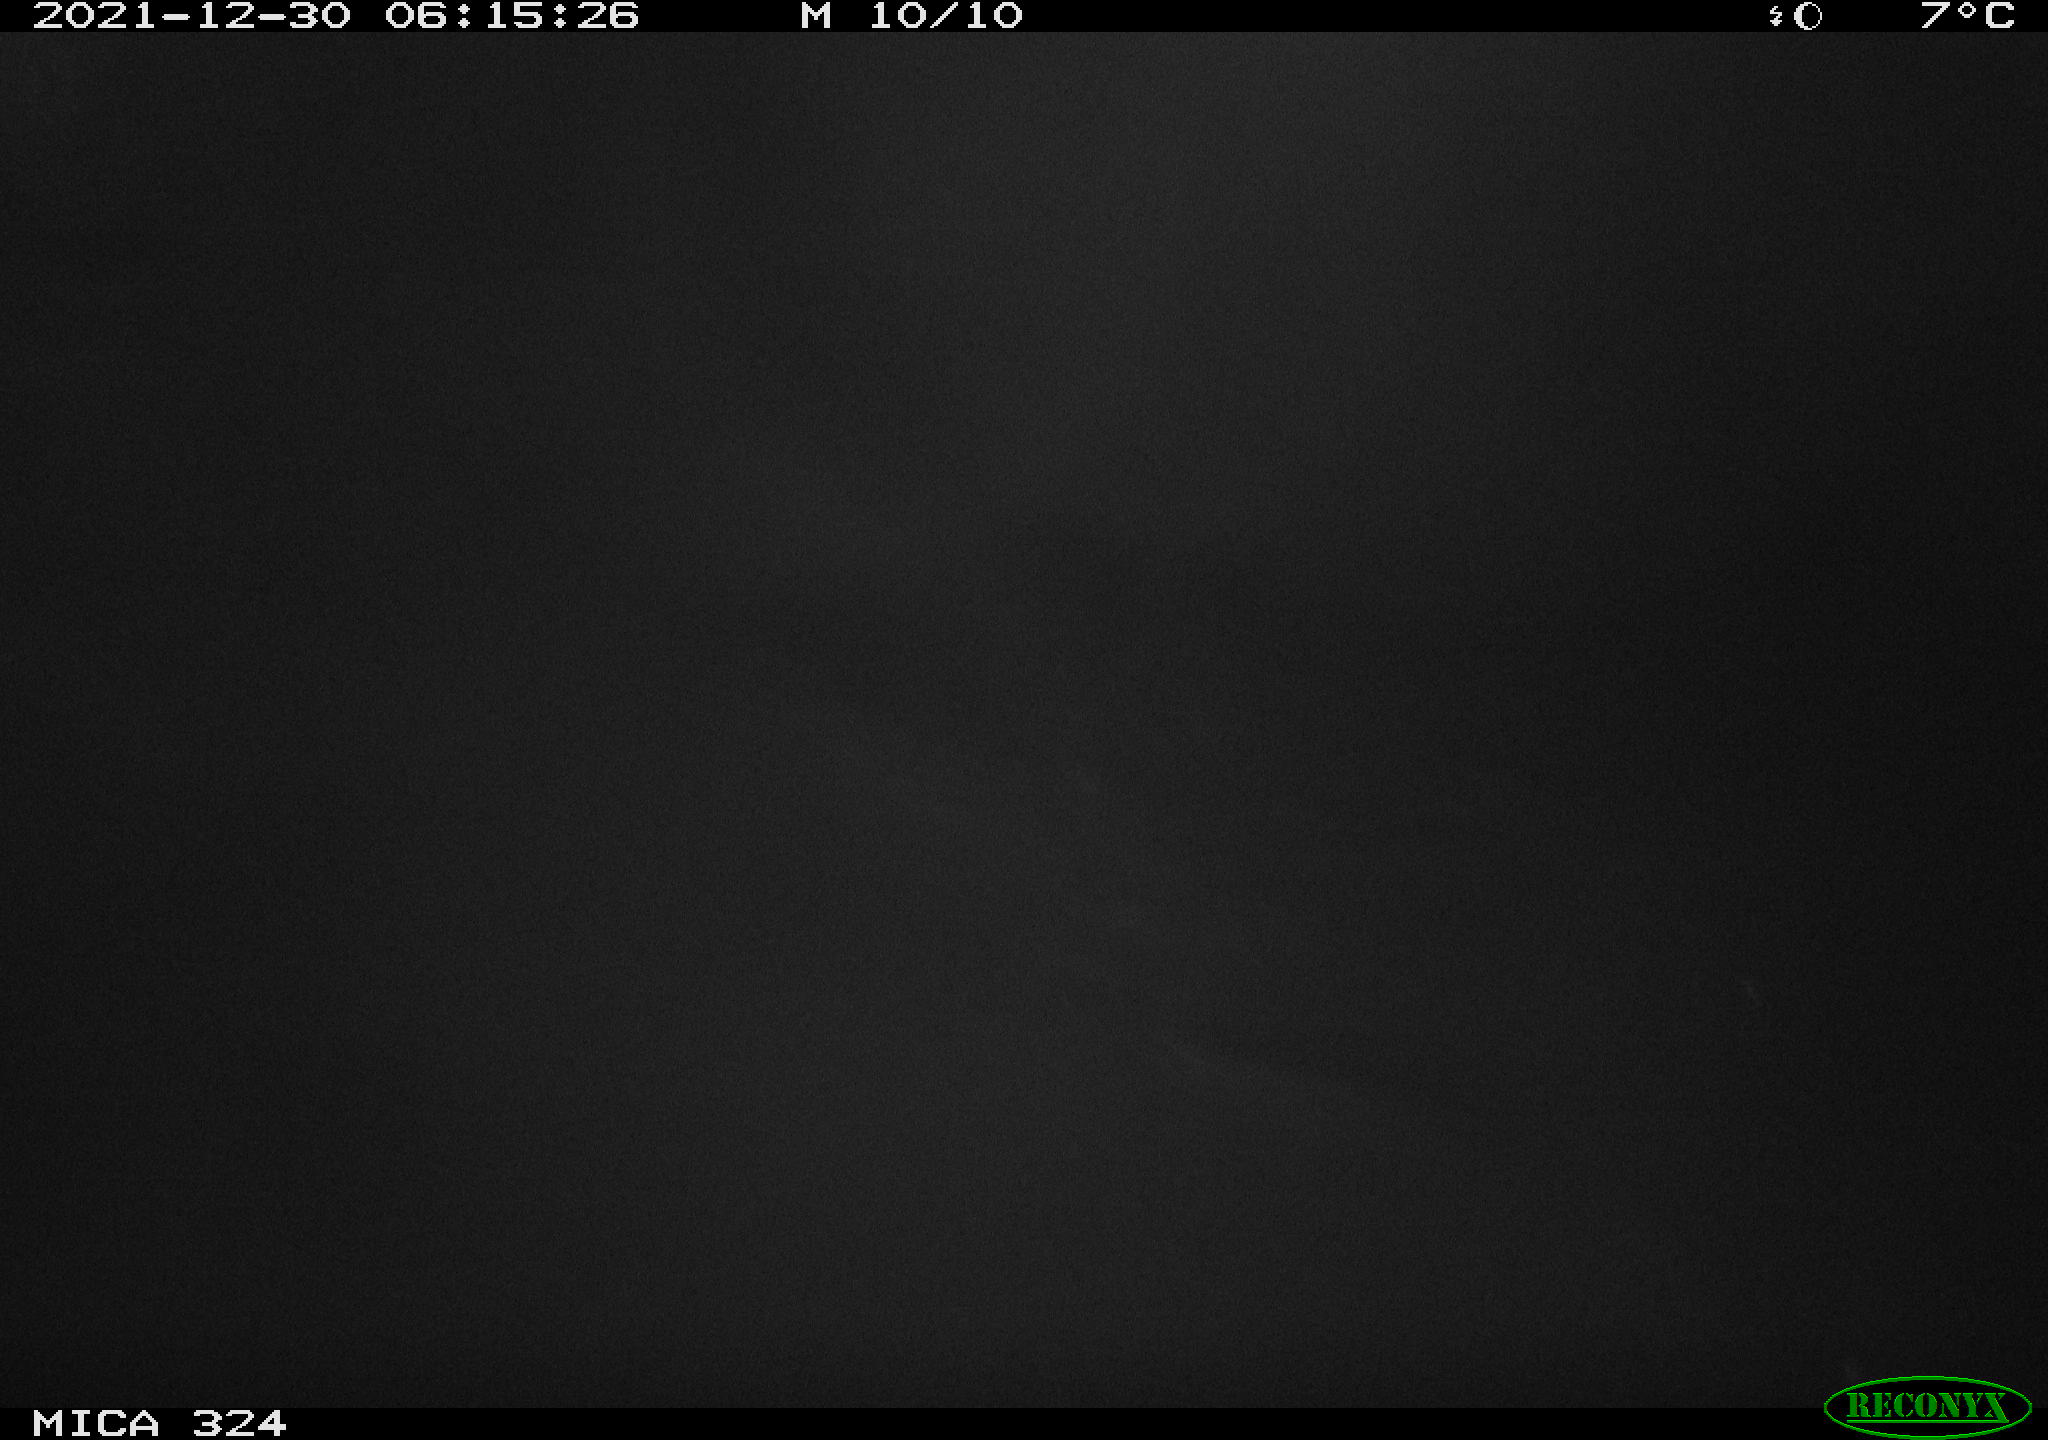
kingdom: Animalia
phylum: Chordata
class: Mammalia
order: Rodentia
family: Cricetidae
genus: Ondatra
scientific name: Ondatra zibethicus
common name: Muskrat
